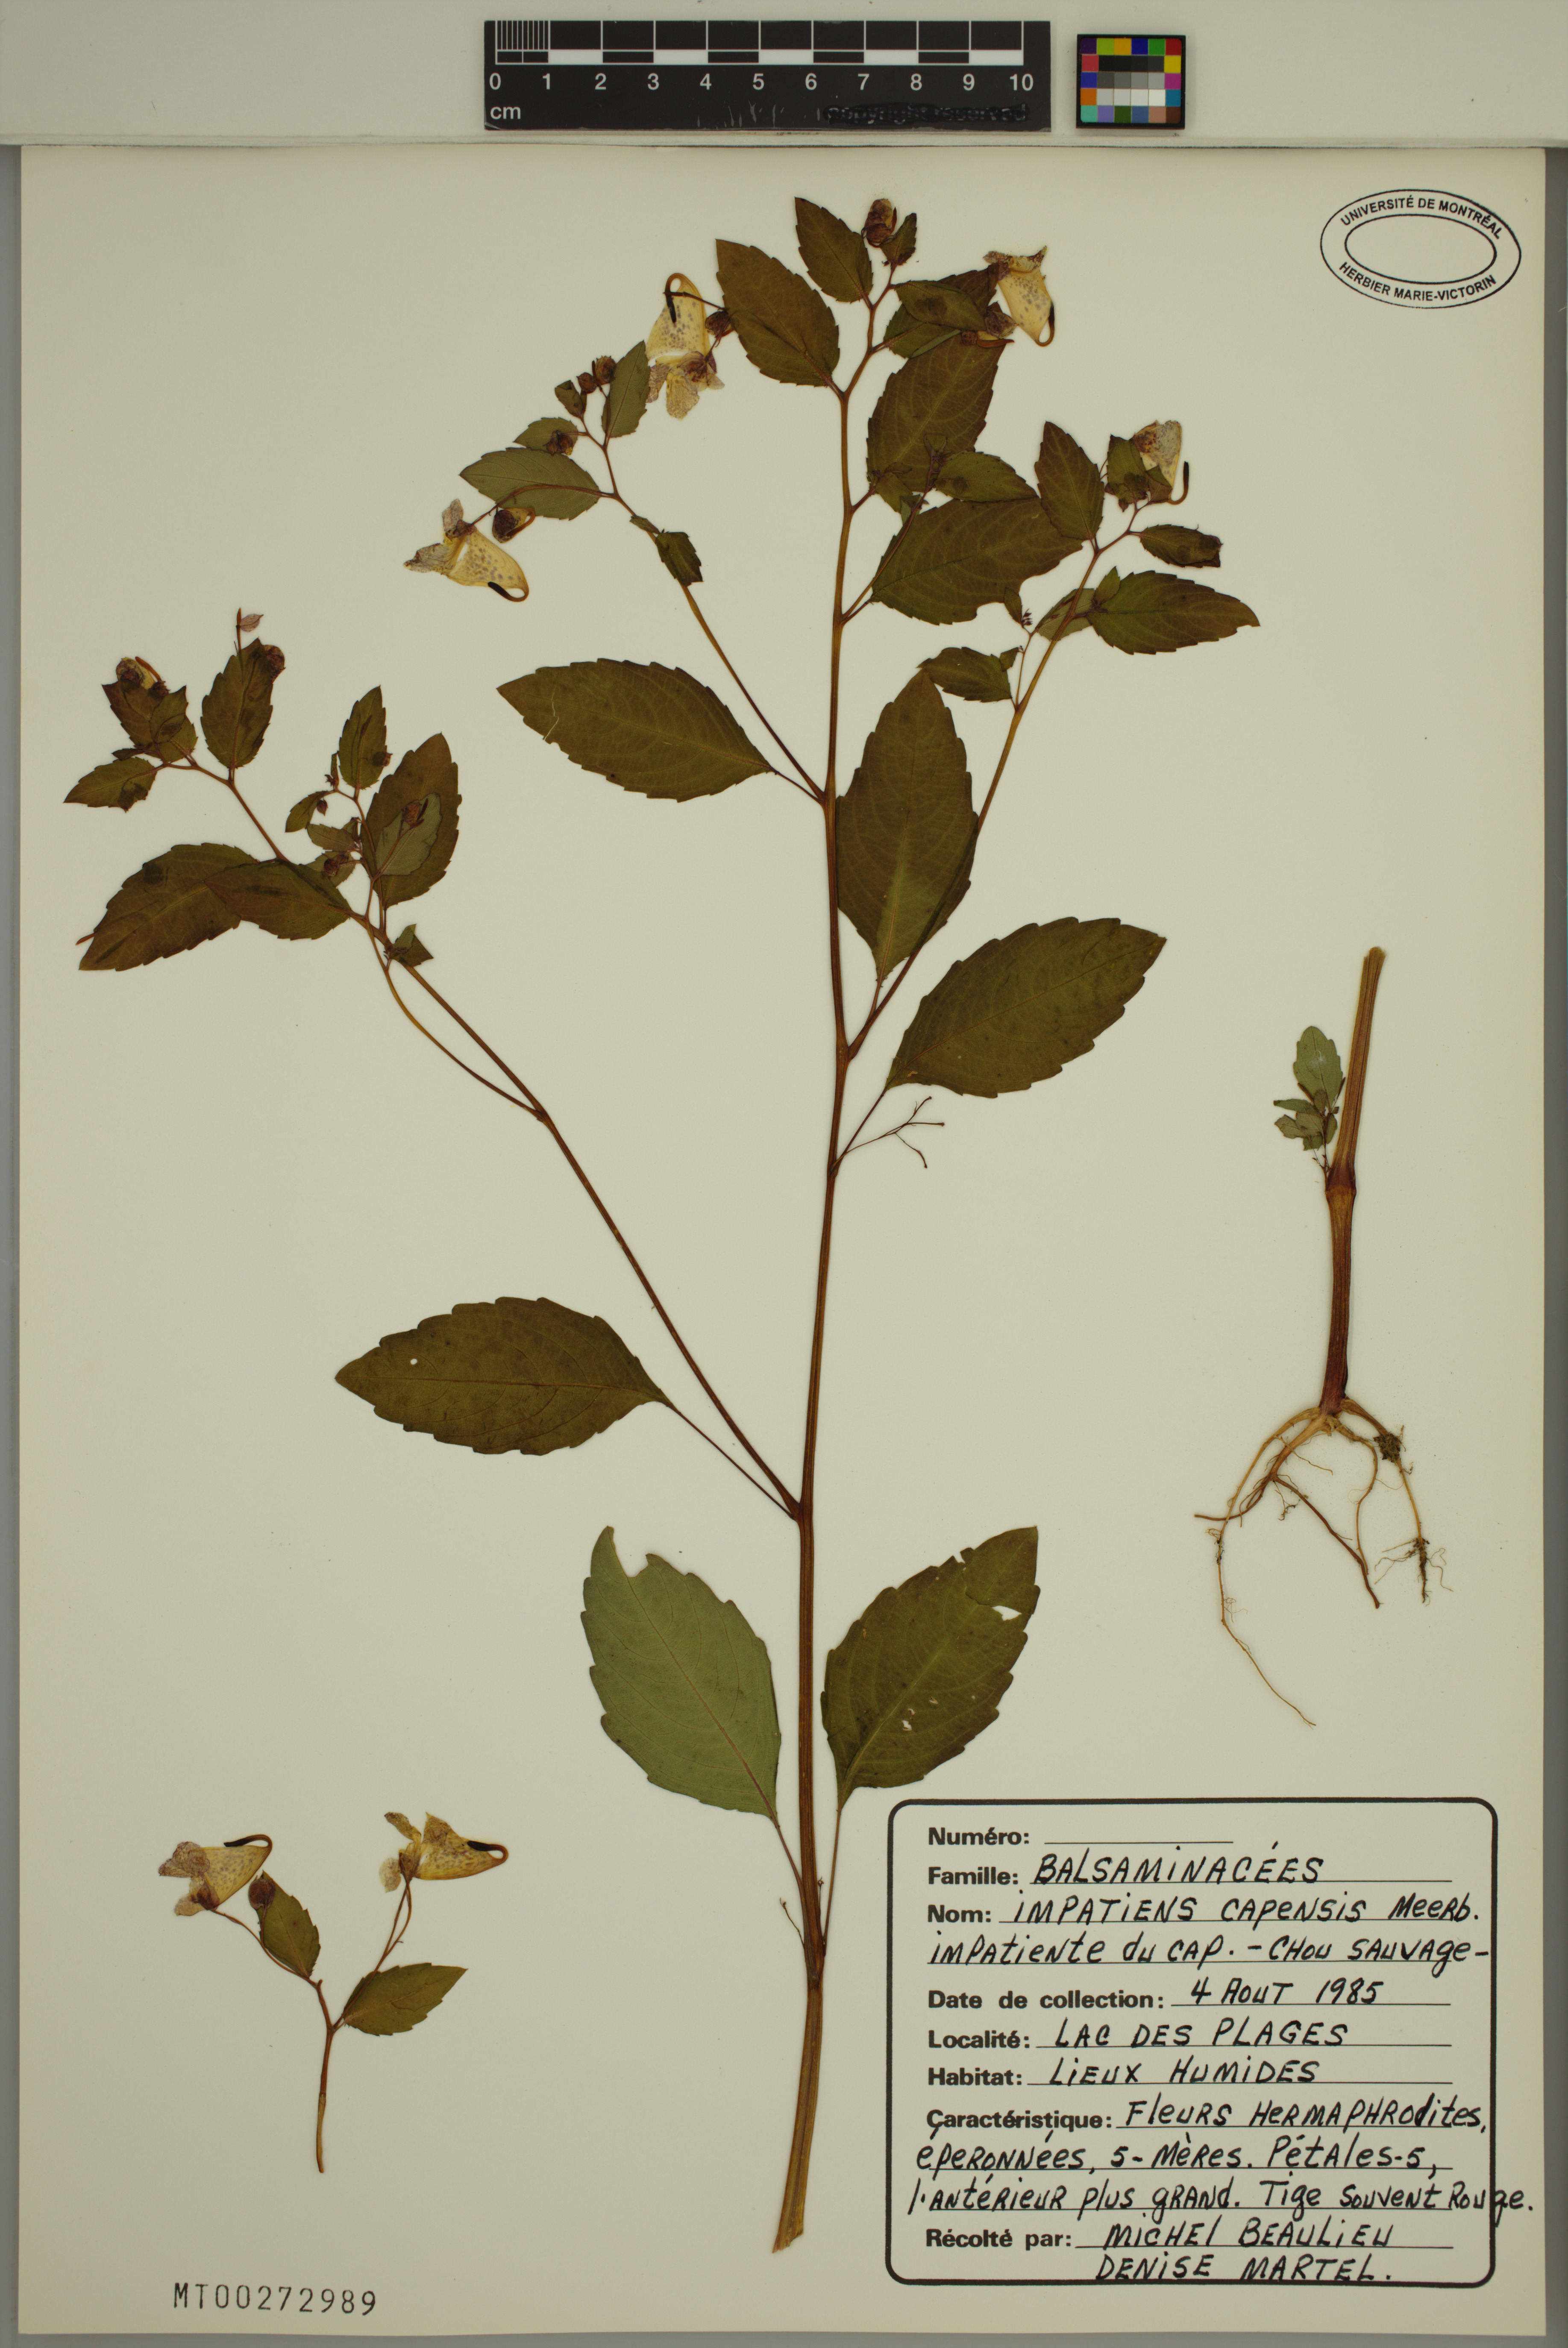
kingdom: Plantae
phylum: Tracheophyta
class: Magnoliopsida
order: Ericales
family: Balsaminaceae
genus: Impatiens
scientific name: Impatiens capensis
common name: Orange balsam
